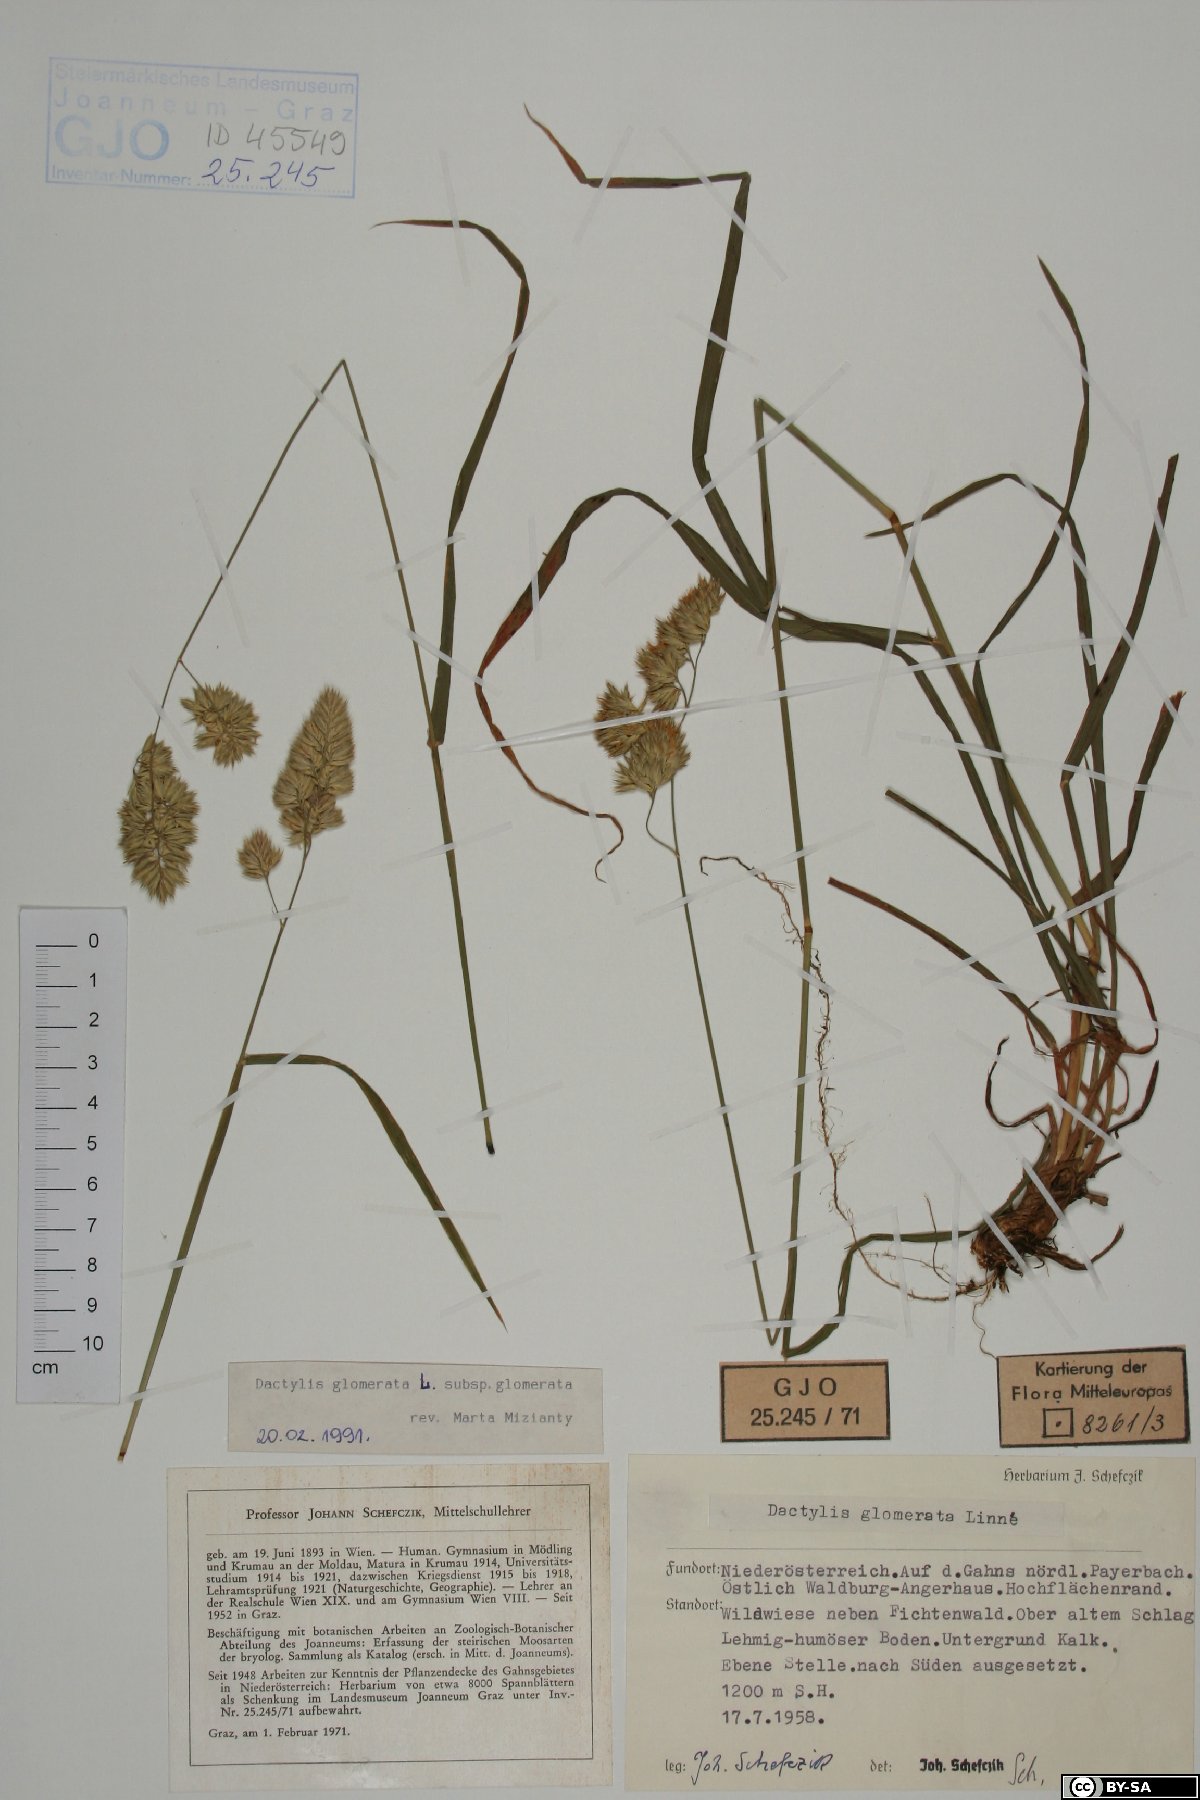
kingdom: Plantae
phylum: Tracheophyta
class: Liliopsida
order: Poales
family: Poaceae
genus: Dactylis
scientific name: Dactylis glomerata
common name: Orchardgrass
